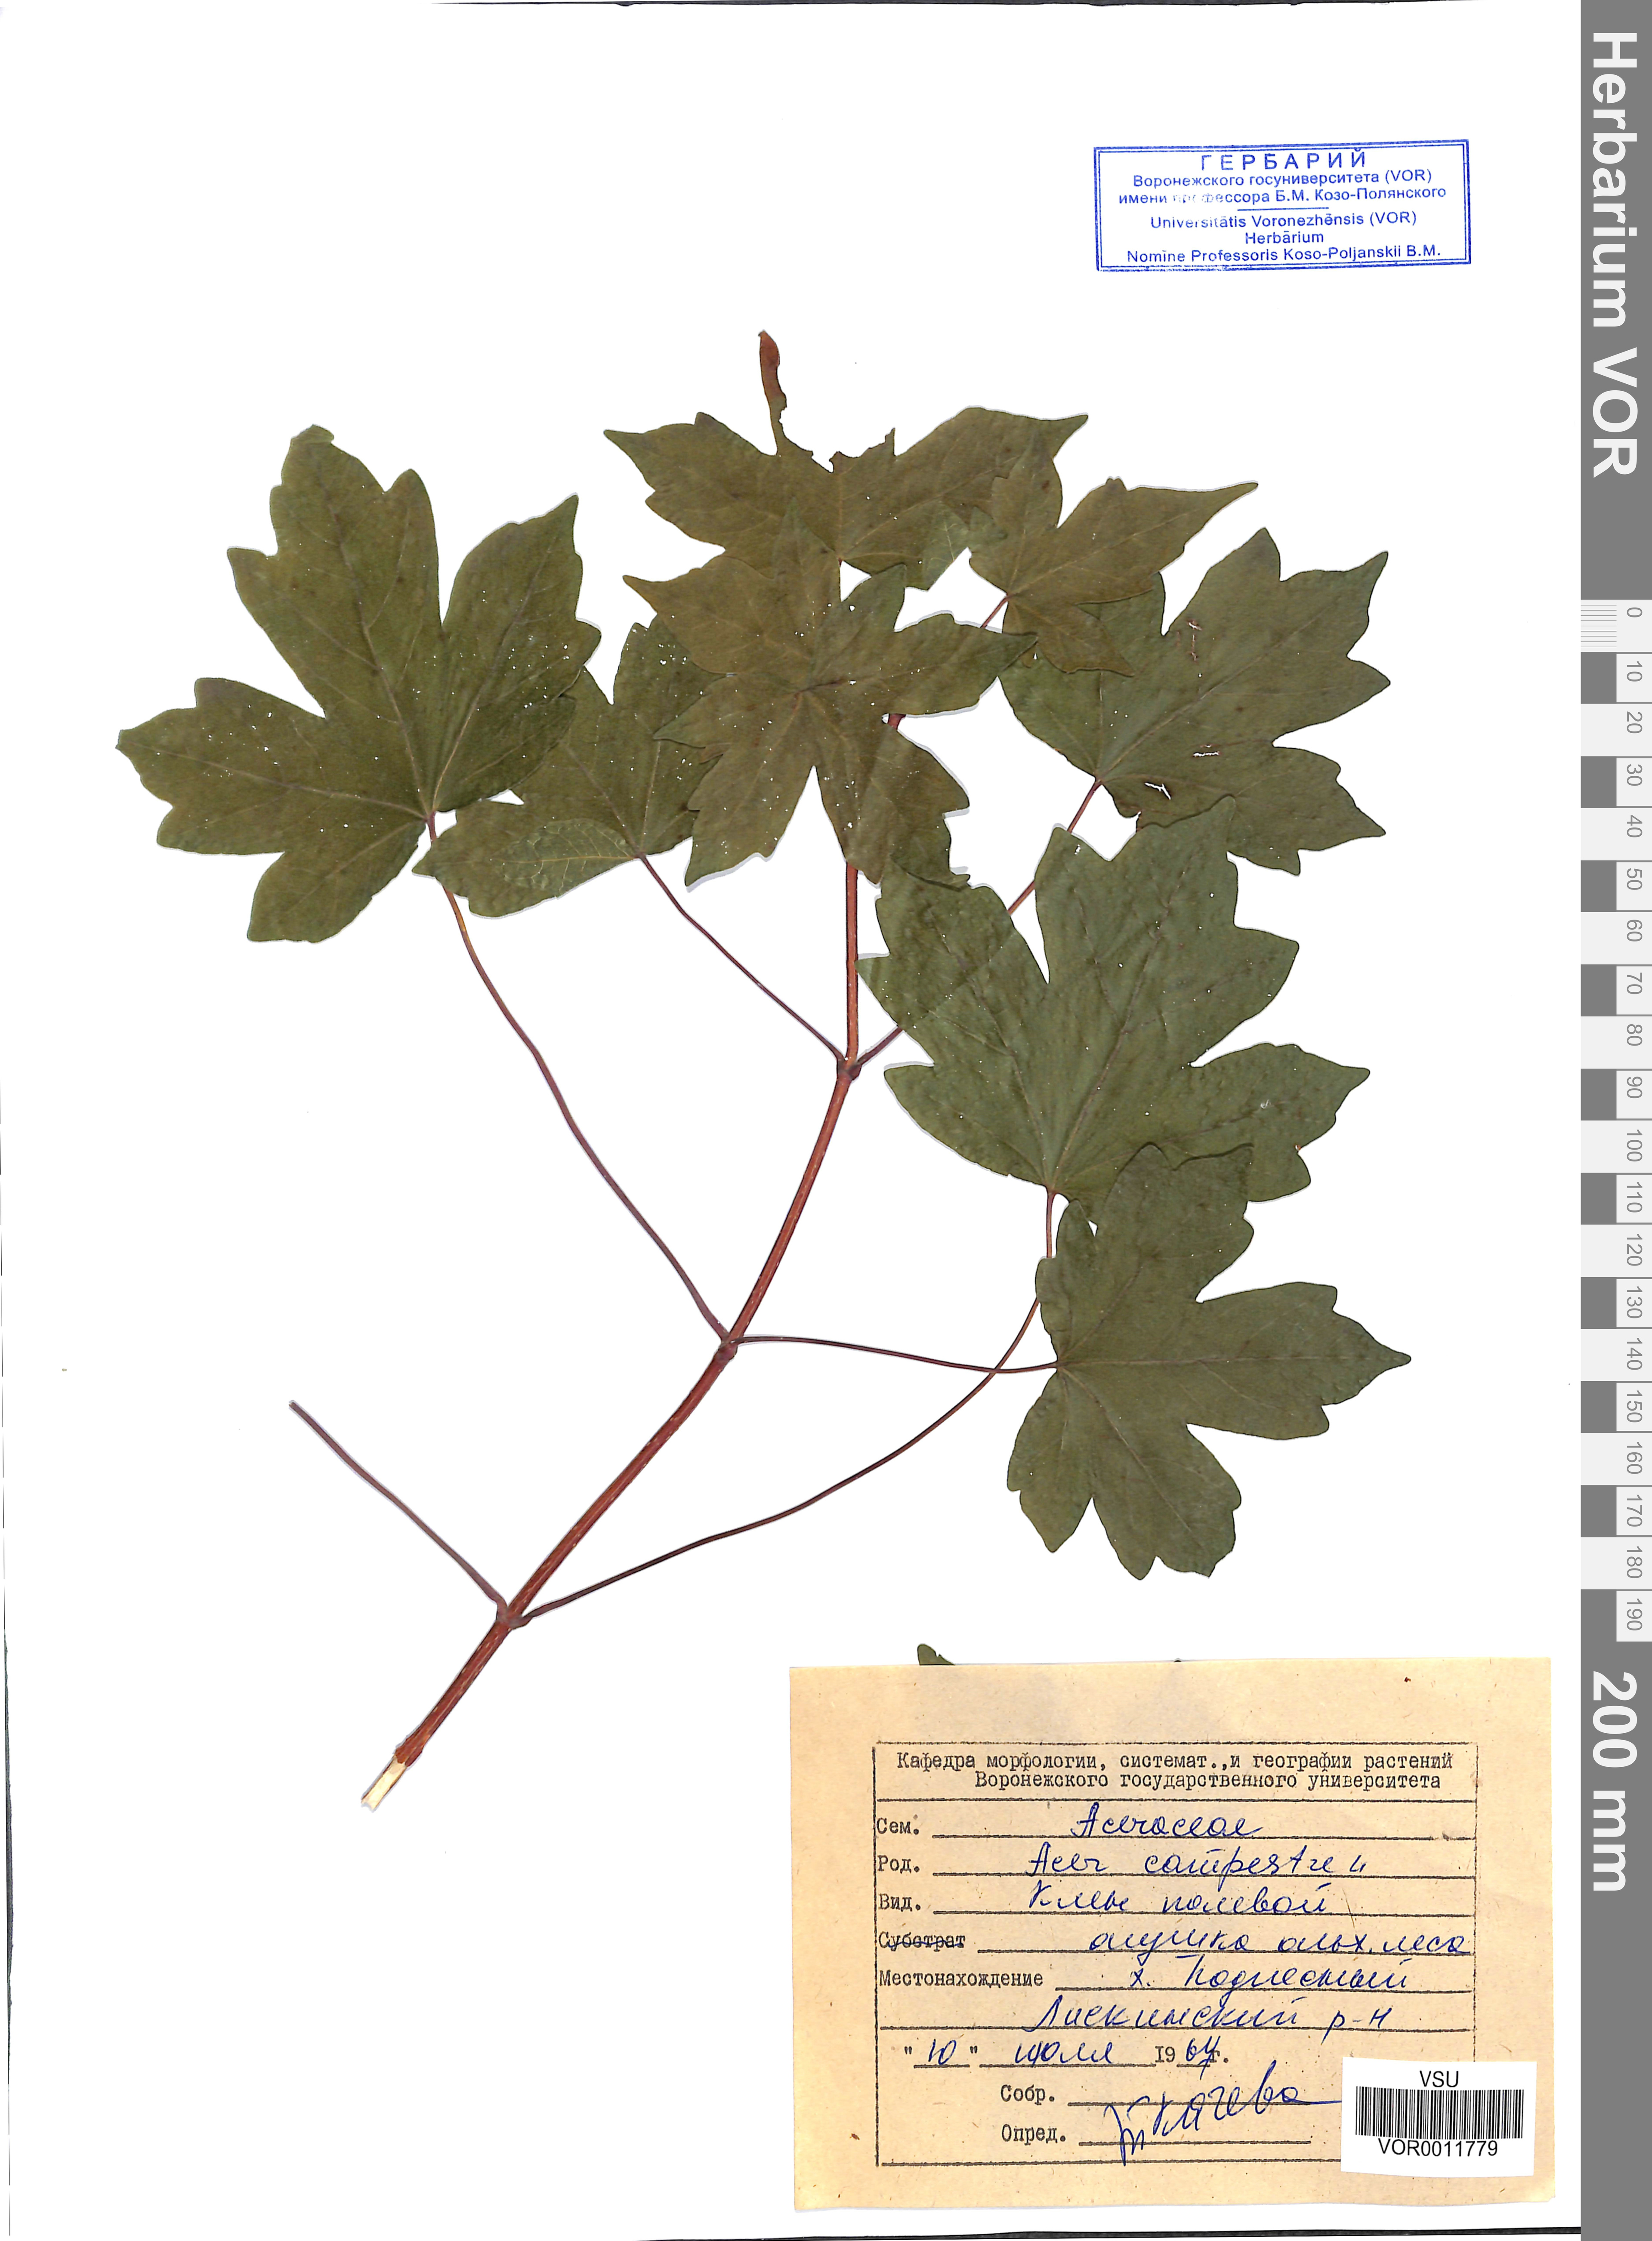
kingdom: Plantae
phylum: Tracheophyta
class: Magnoliopsida
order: Sapindales
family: Sapindaceae
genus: Acer
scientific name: Acer campestre
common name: Field maple
